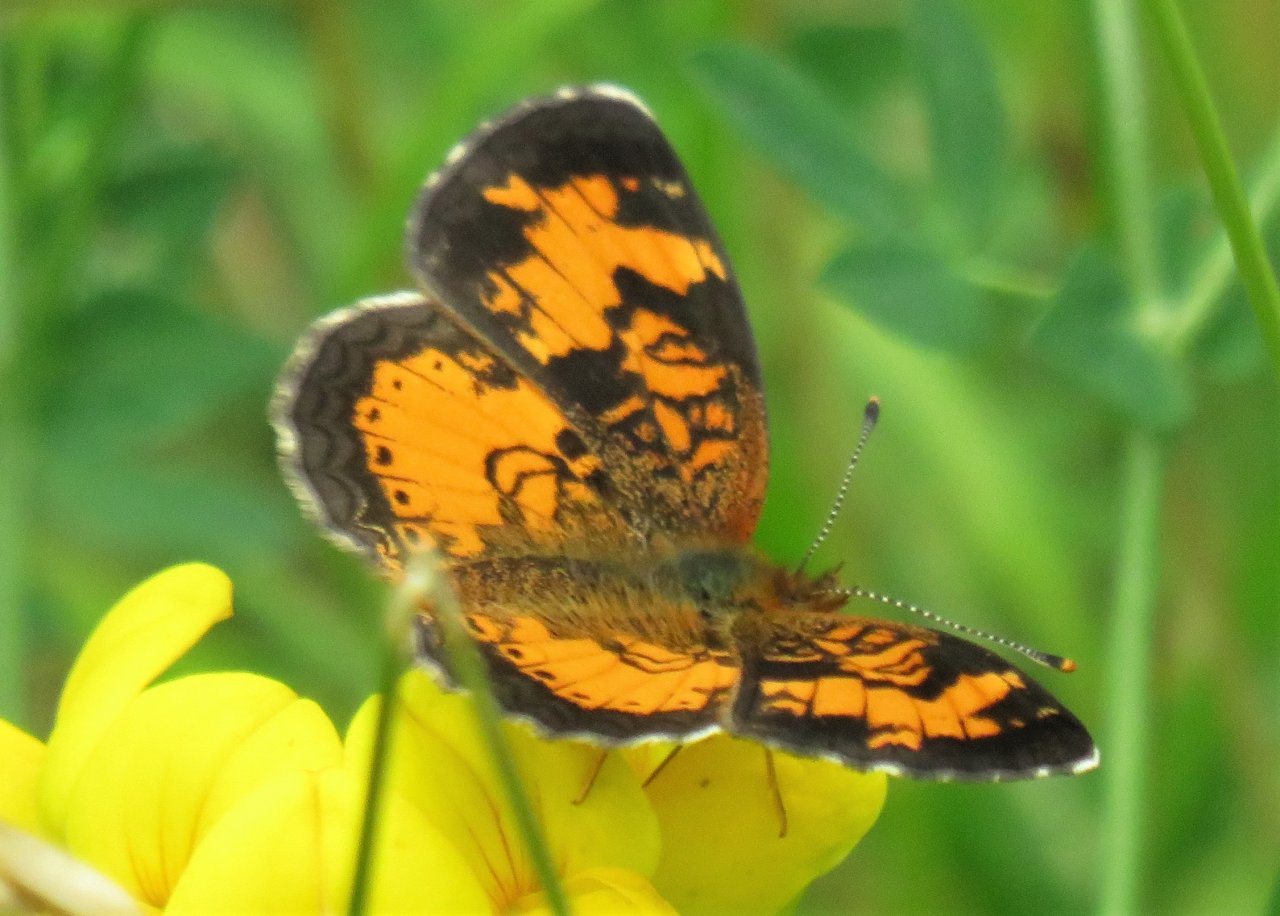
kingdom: Animalia
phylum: Arthropoda
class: Insecta
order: Lepidoptera
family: Nymphalidae
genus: Phyciodes
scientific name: Phyciodes tharos
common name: Northern Crescent
